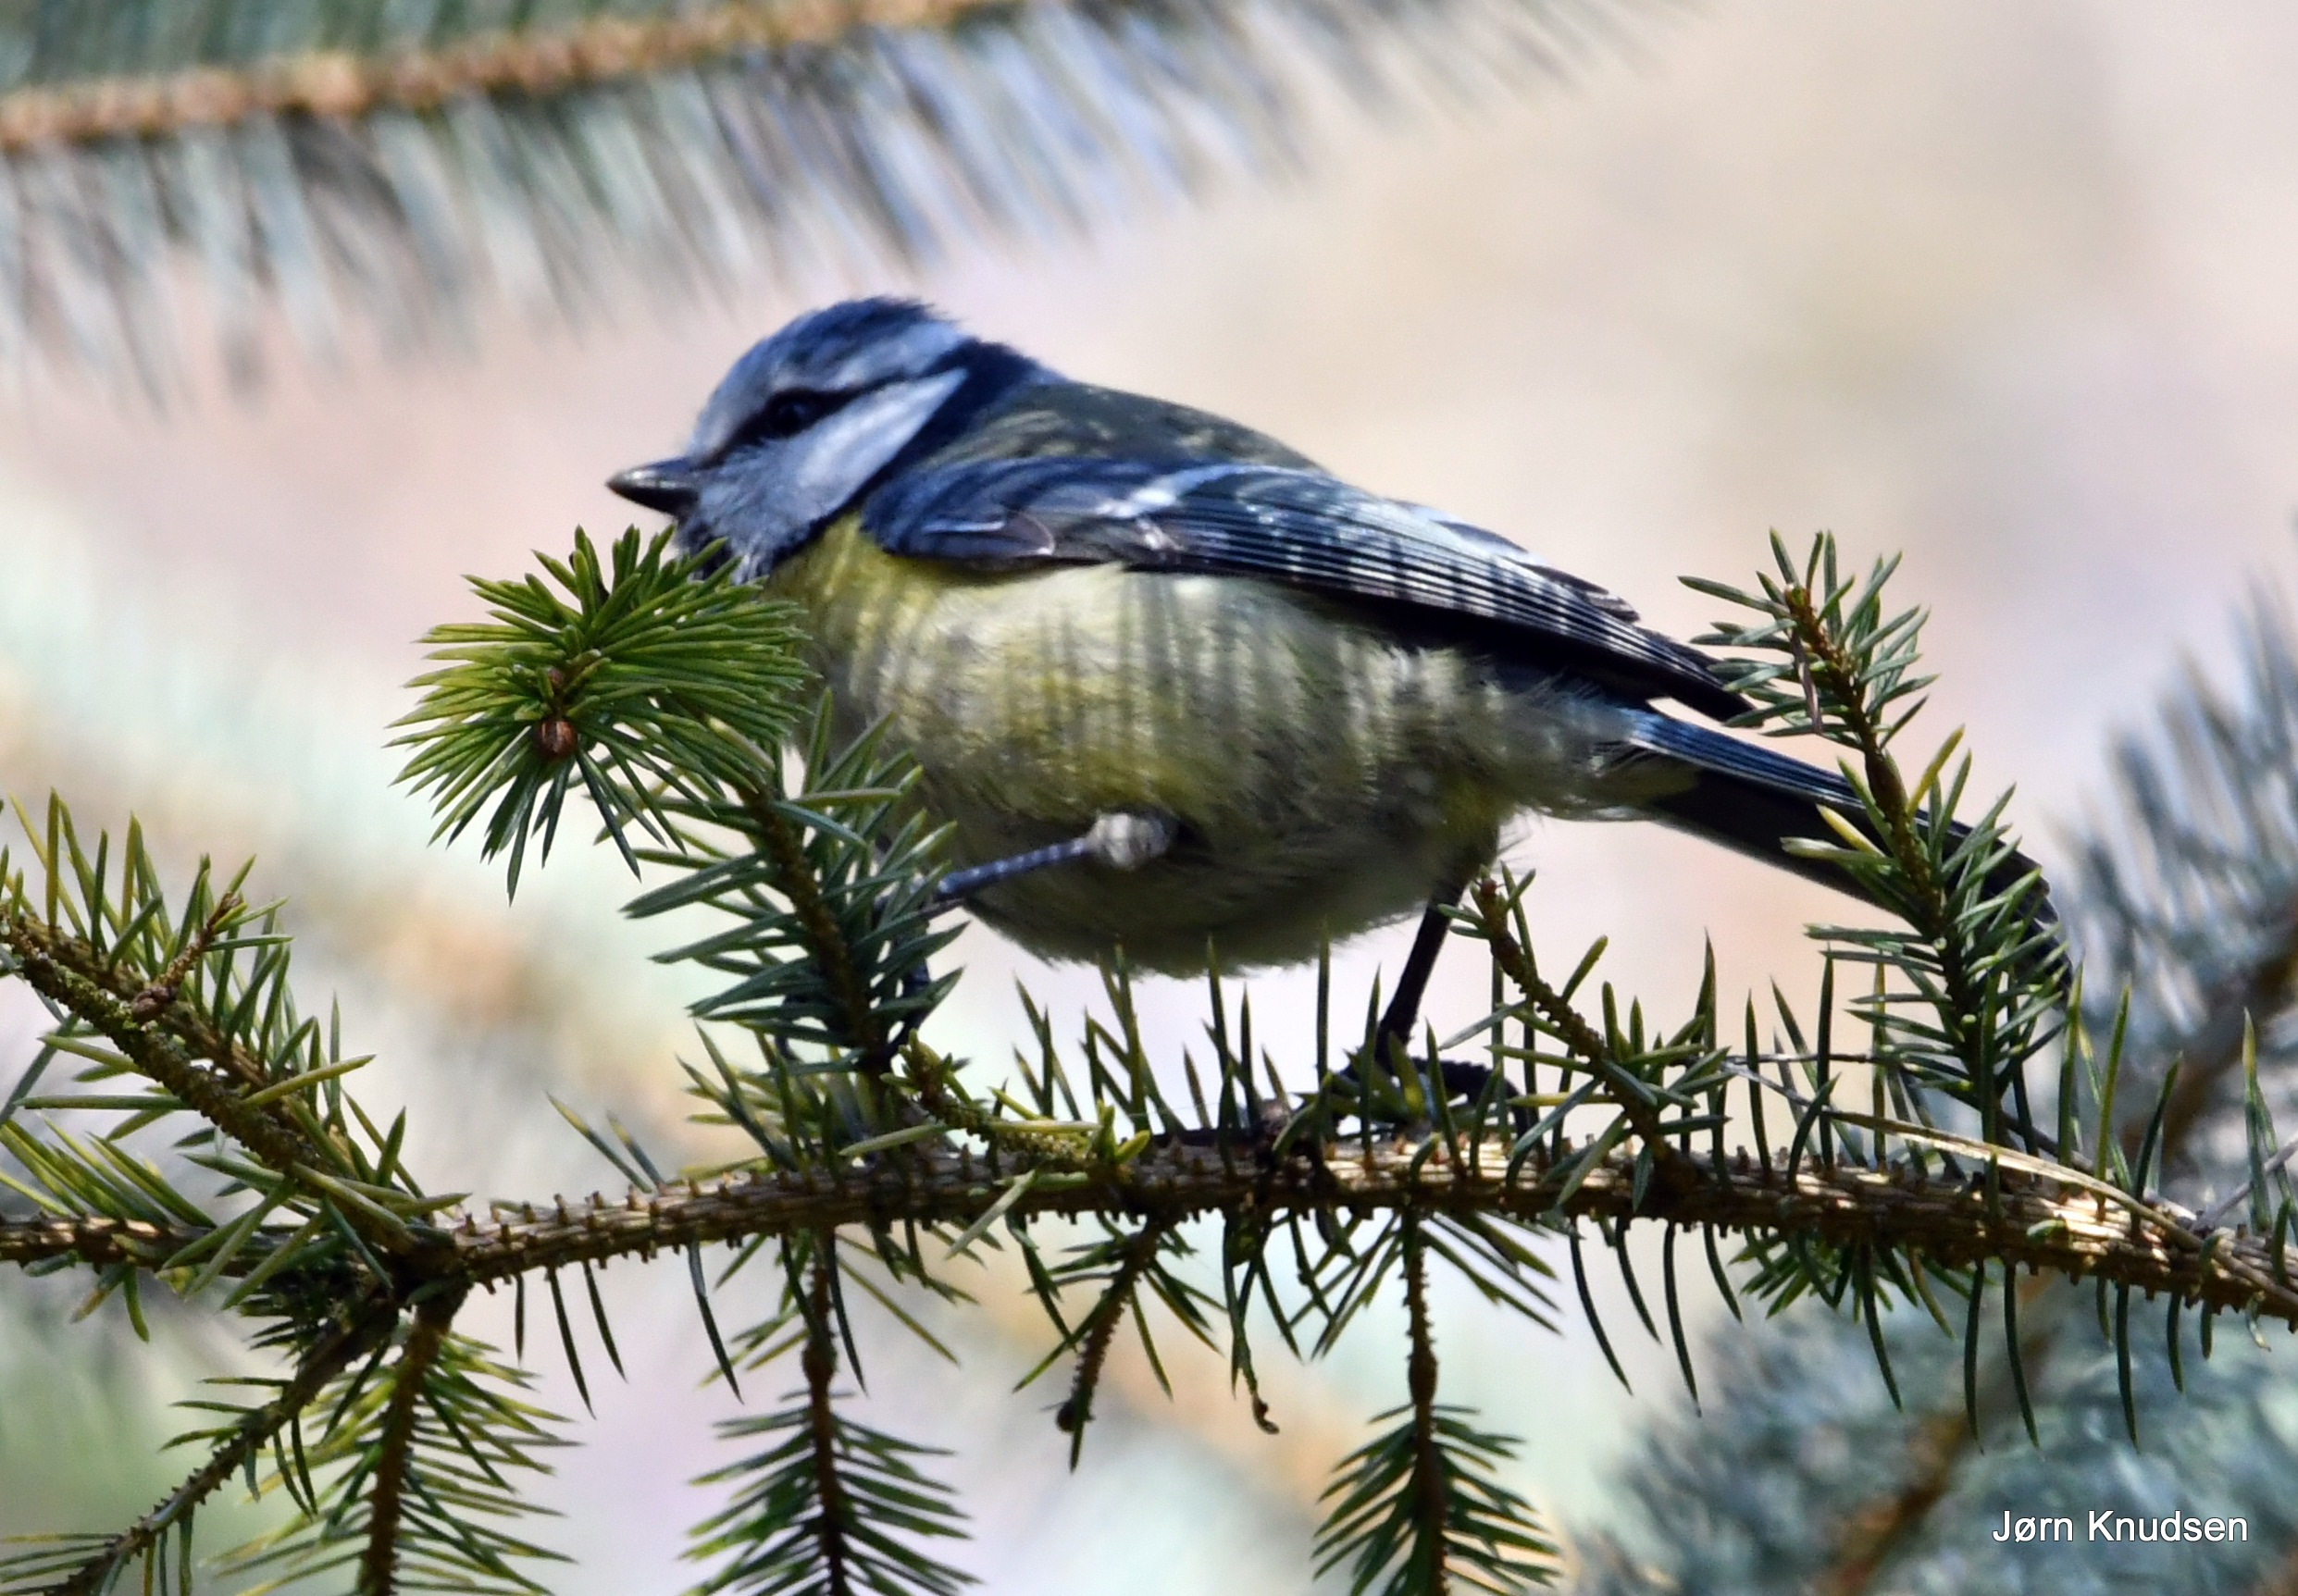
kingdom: Animalia
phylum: Chordata
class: Aves
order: Passeriformes
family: Paridae
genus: Cyanistes
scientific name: Cyanistes caeruleus
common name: Blåmejse
